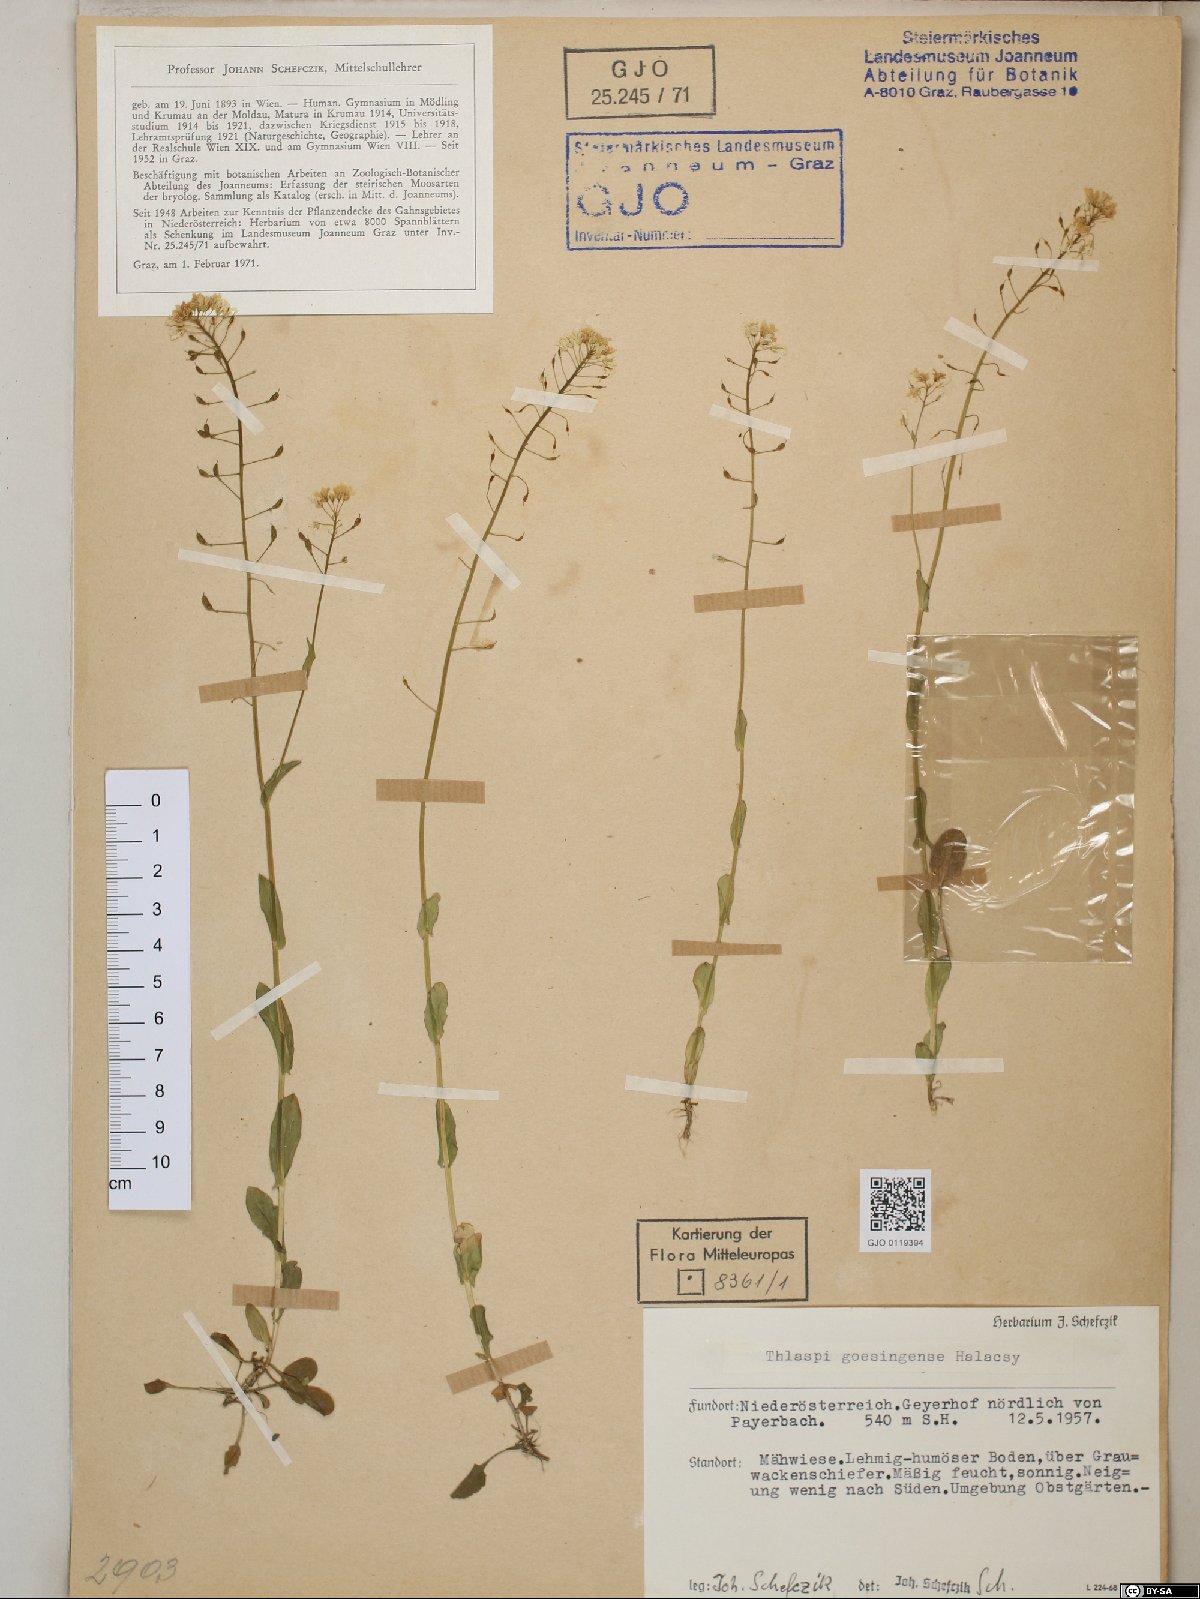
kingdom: Plantae
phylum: Tracheophyta
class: Magnoliopsida
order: Brassicales
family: Brassicaceae
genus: Noccaea
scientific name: Noccaea goesingensis
